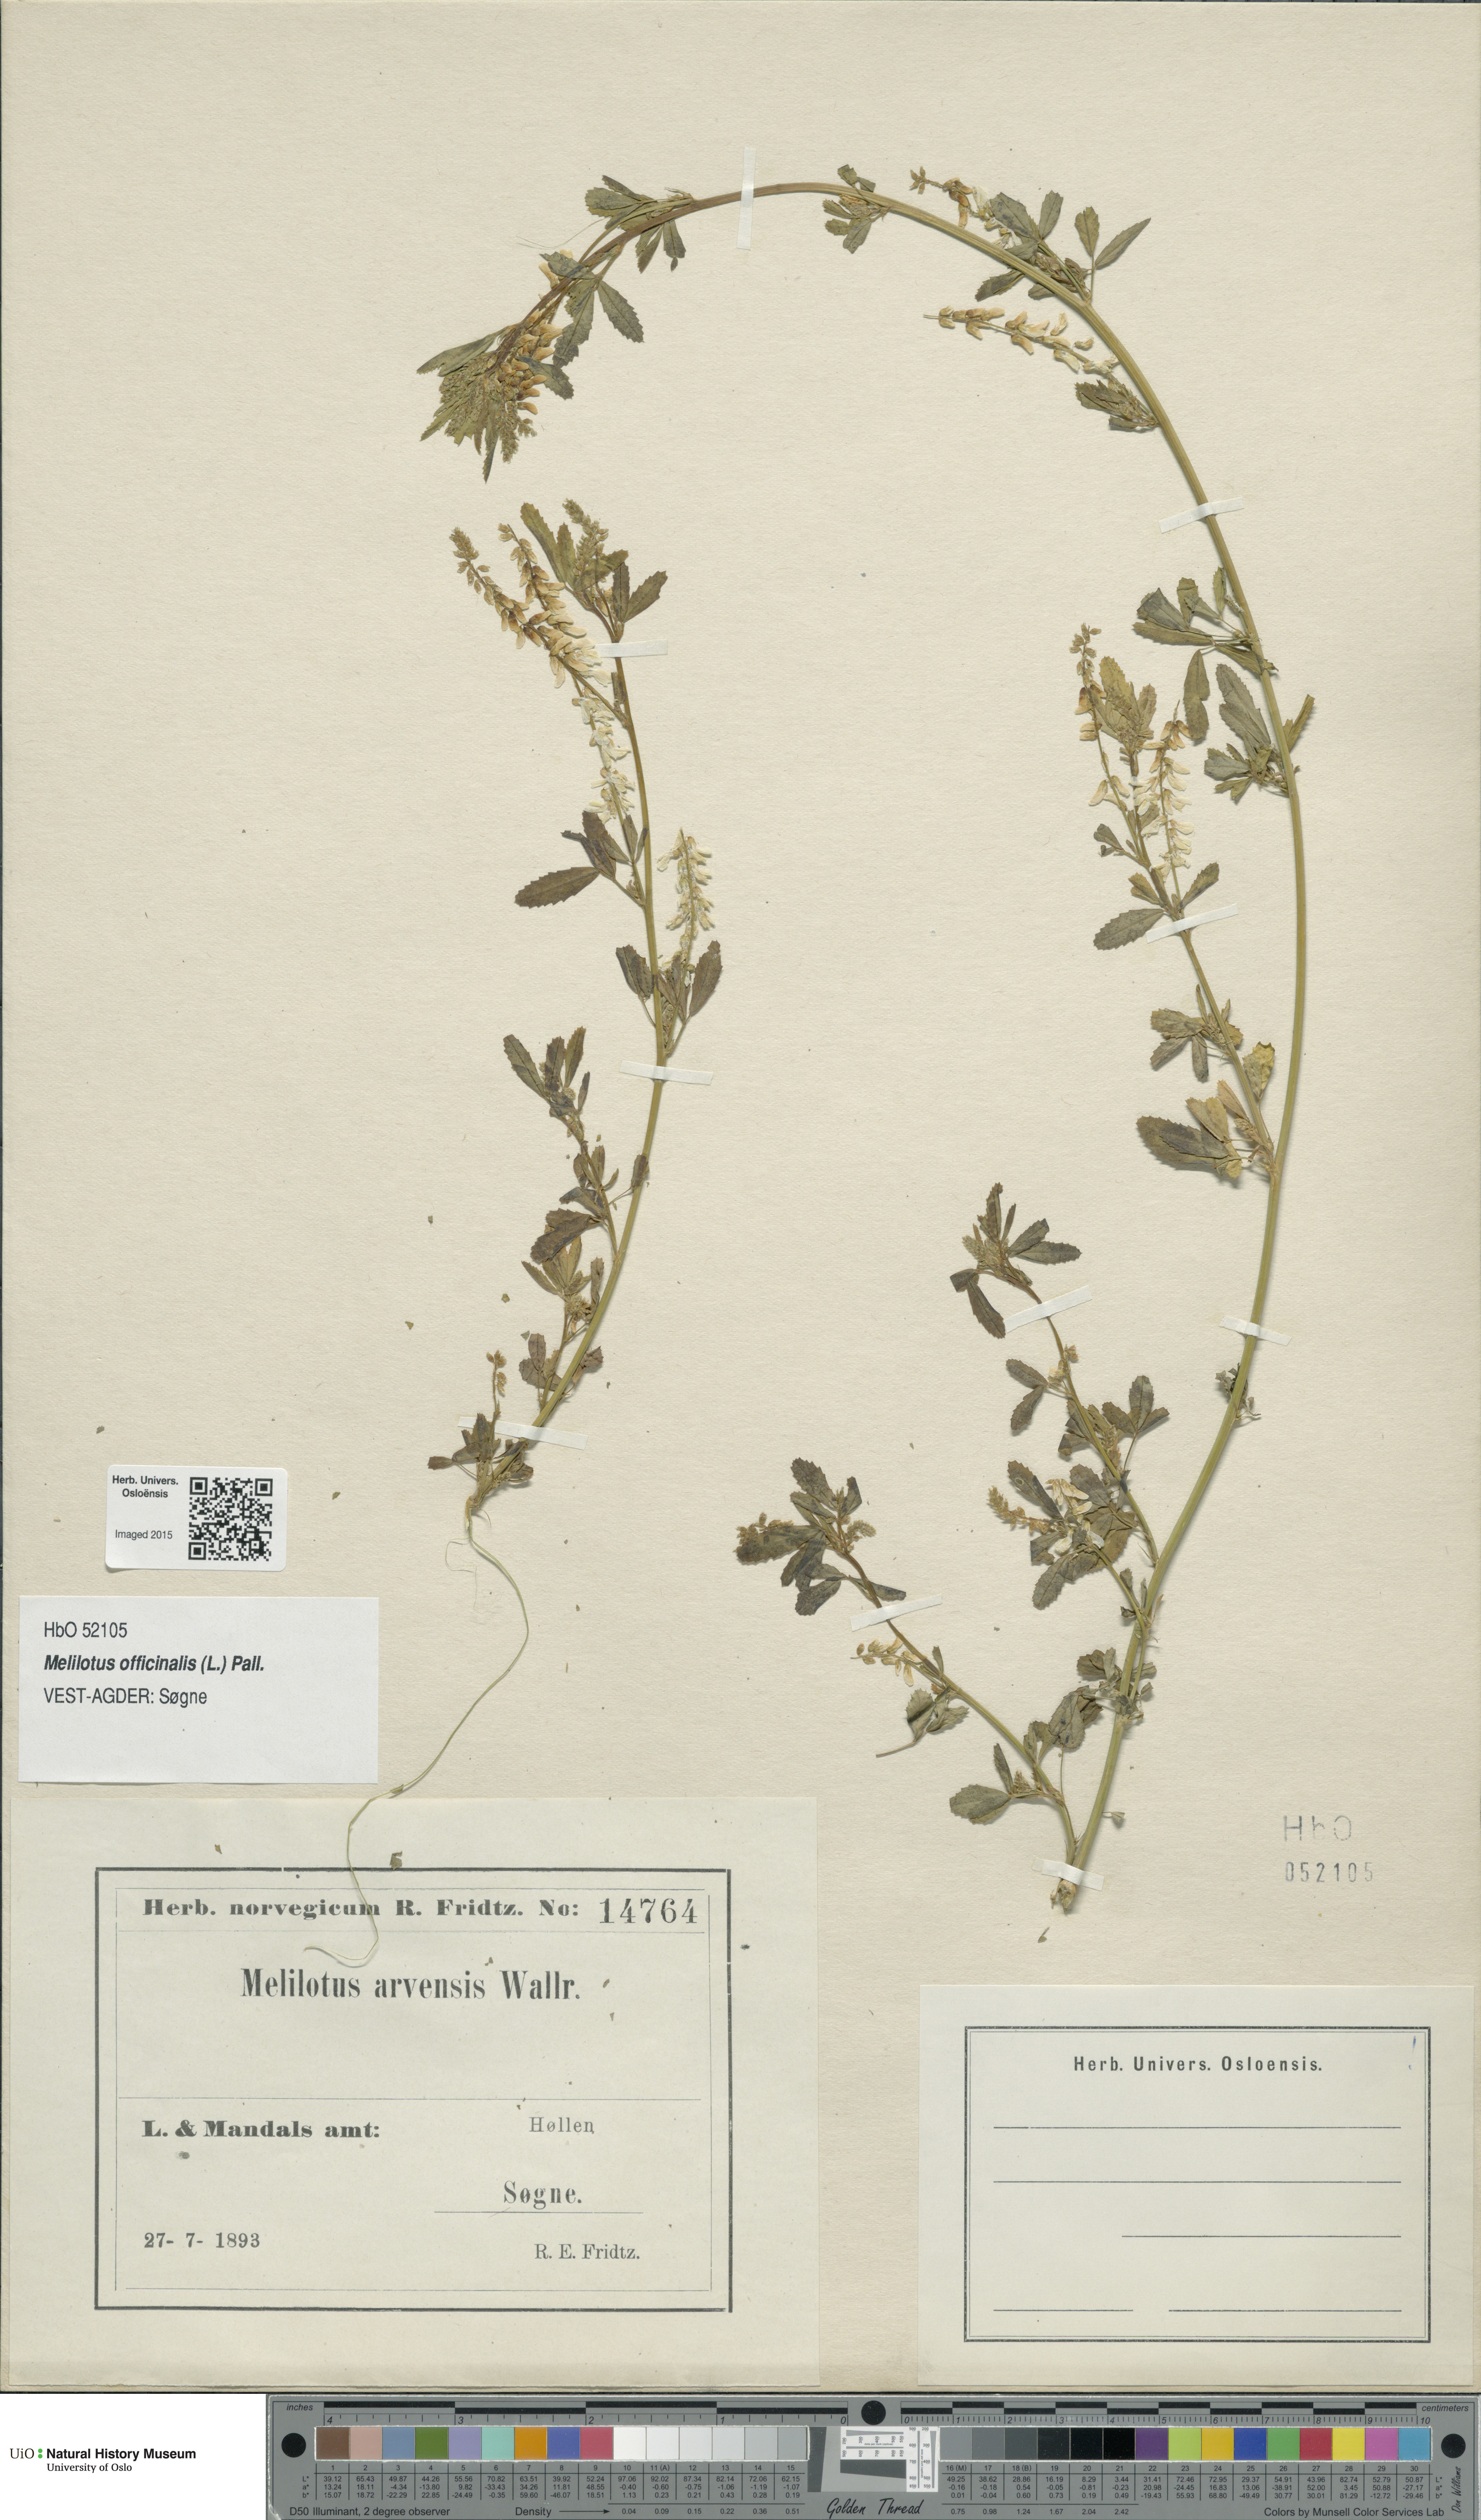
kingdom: Plantae
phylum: Tracheophyta
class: Magnoliopsida
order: Fabales
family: Fabaceae
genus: Melilotus
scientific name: Melilotus officinalis
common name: Sweetclover
